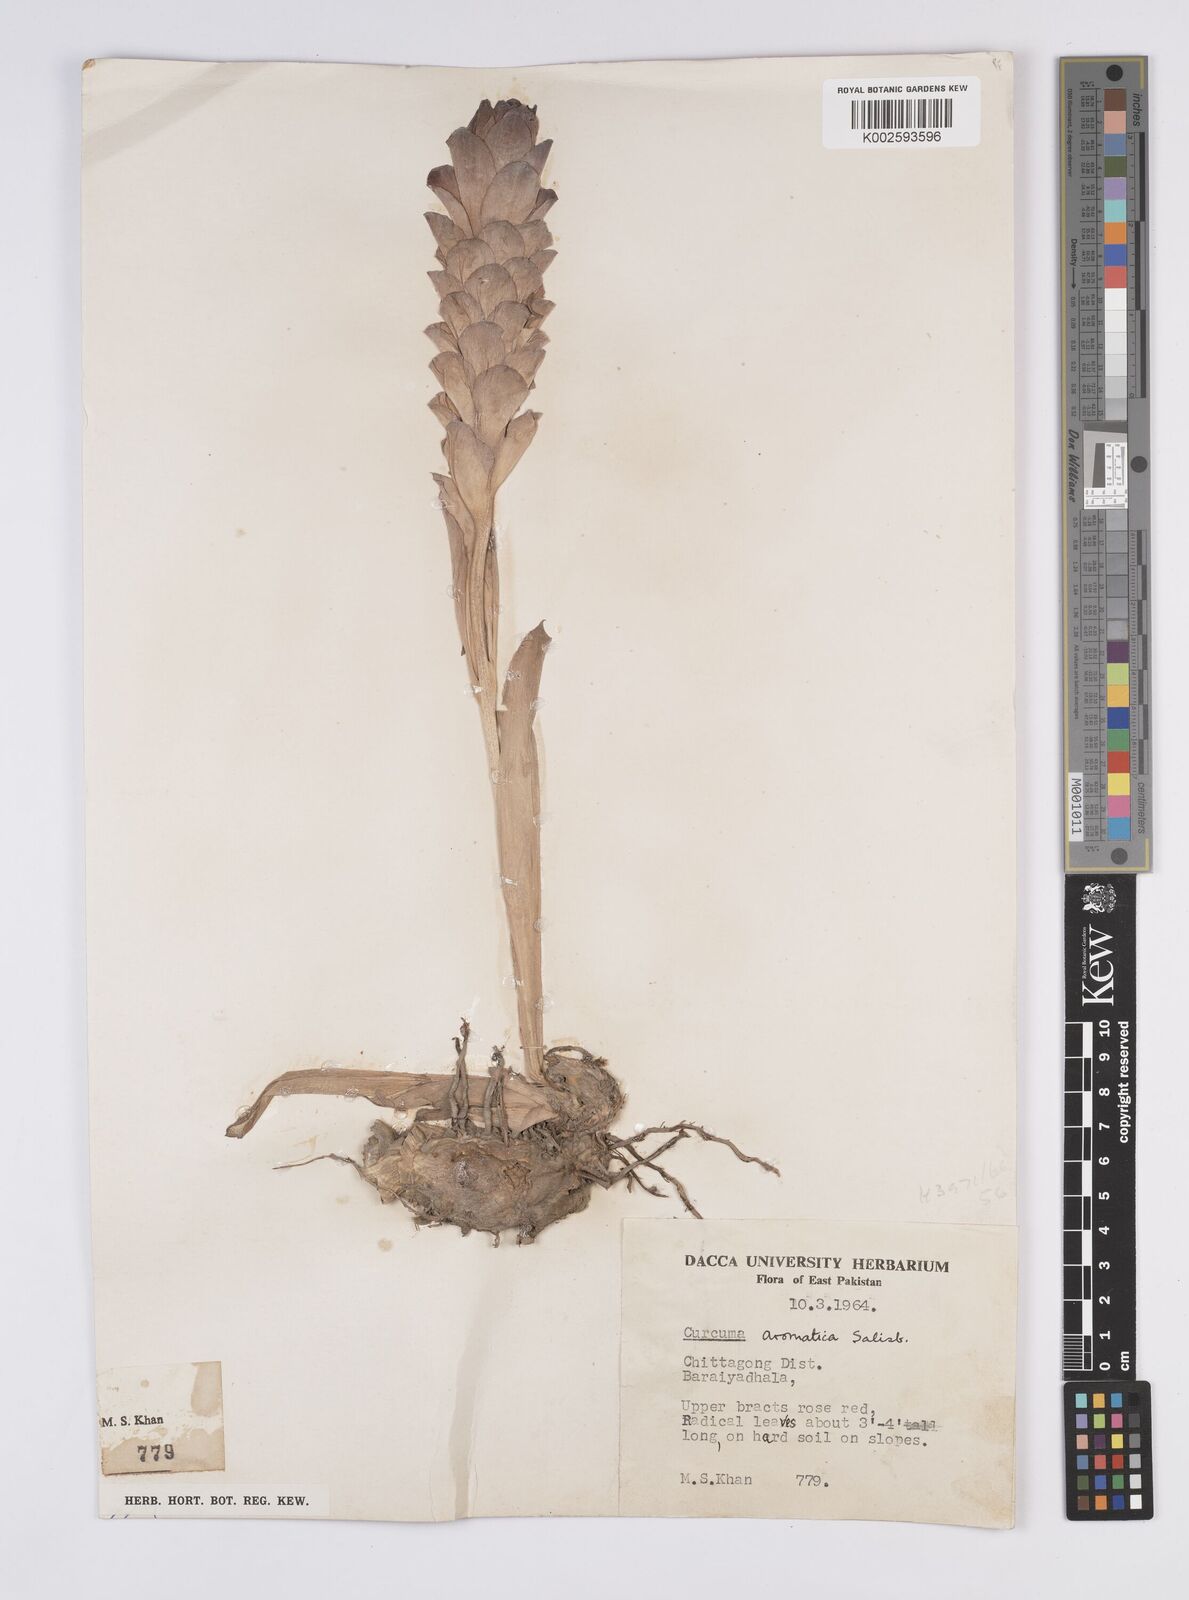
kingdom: Plantae
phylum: Tracheophyta
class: Liliopsida
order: Zingiberales
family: Zingiberaceae
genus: Curcuma
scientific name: Curcuma aromatica
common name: Wild turmeric
